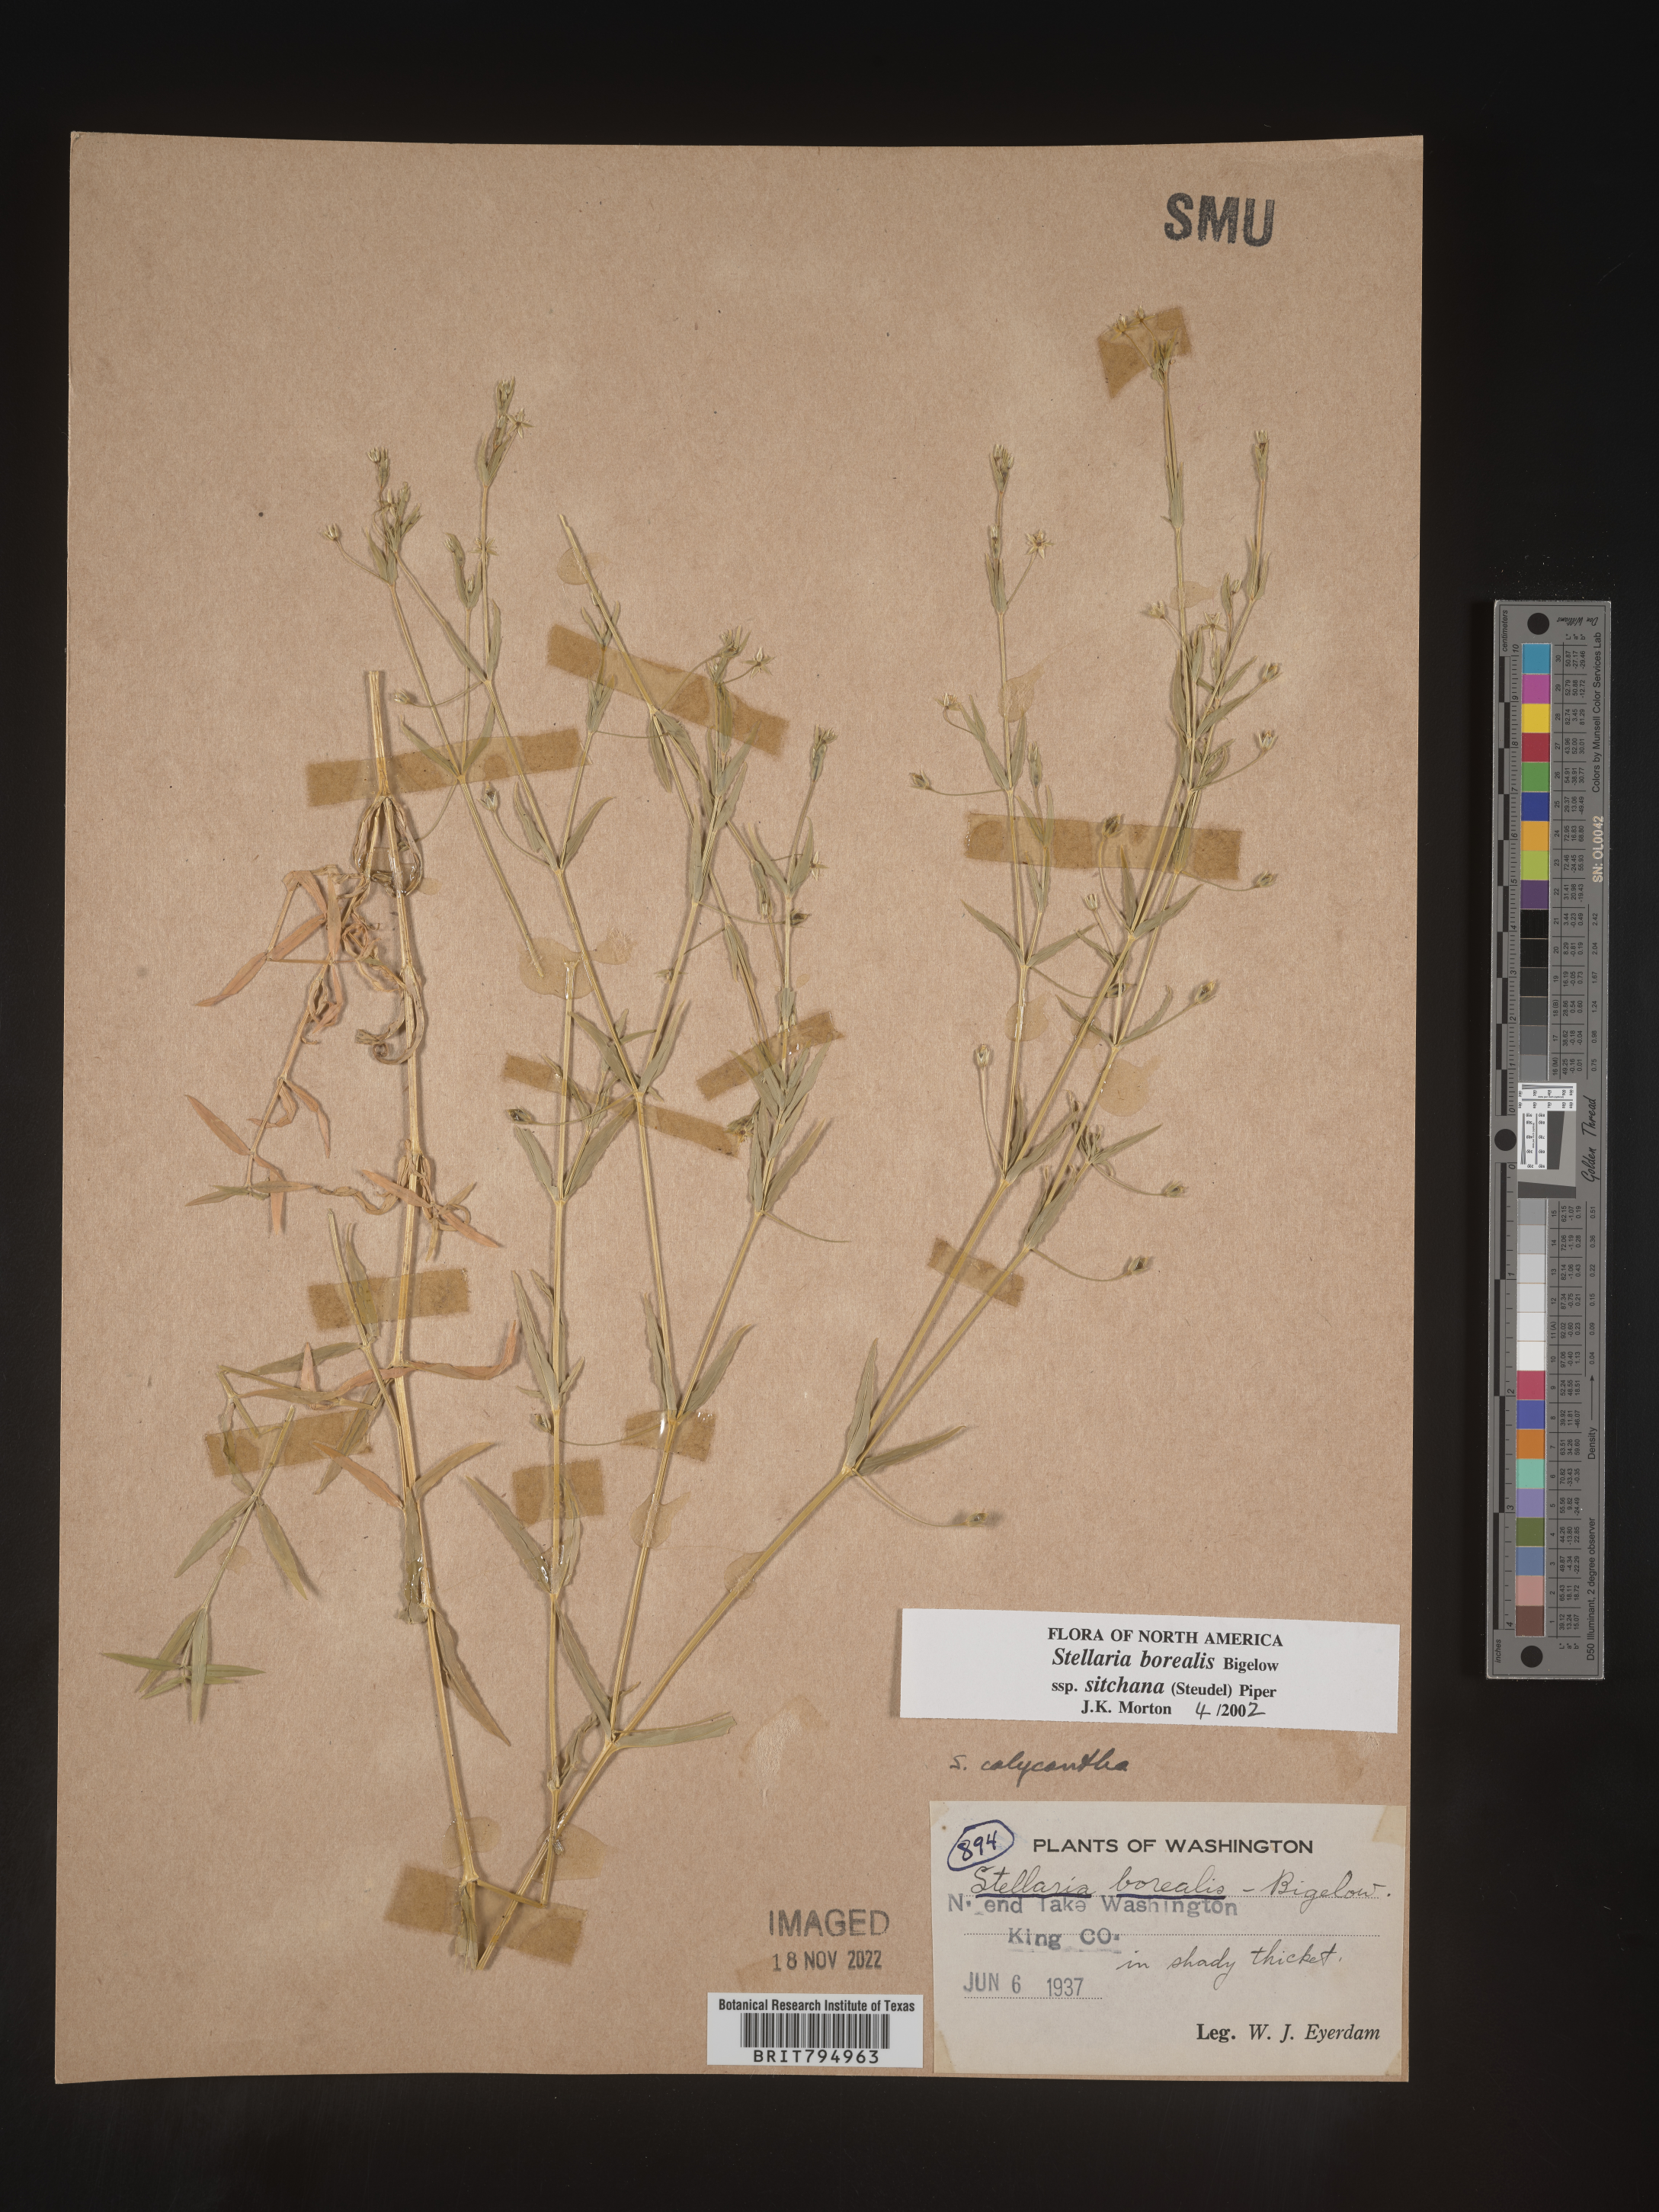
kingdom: Plantae
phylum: Tracheophyta
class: Magnoliopsida
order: Caryophyllales
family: Caryophyllaceae
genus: Stellaria
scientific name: Stellaria sitchana
